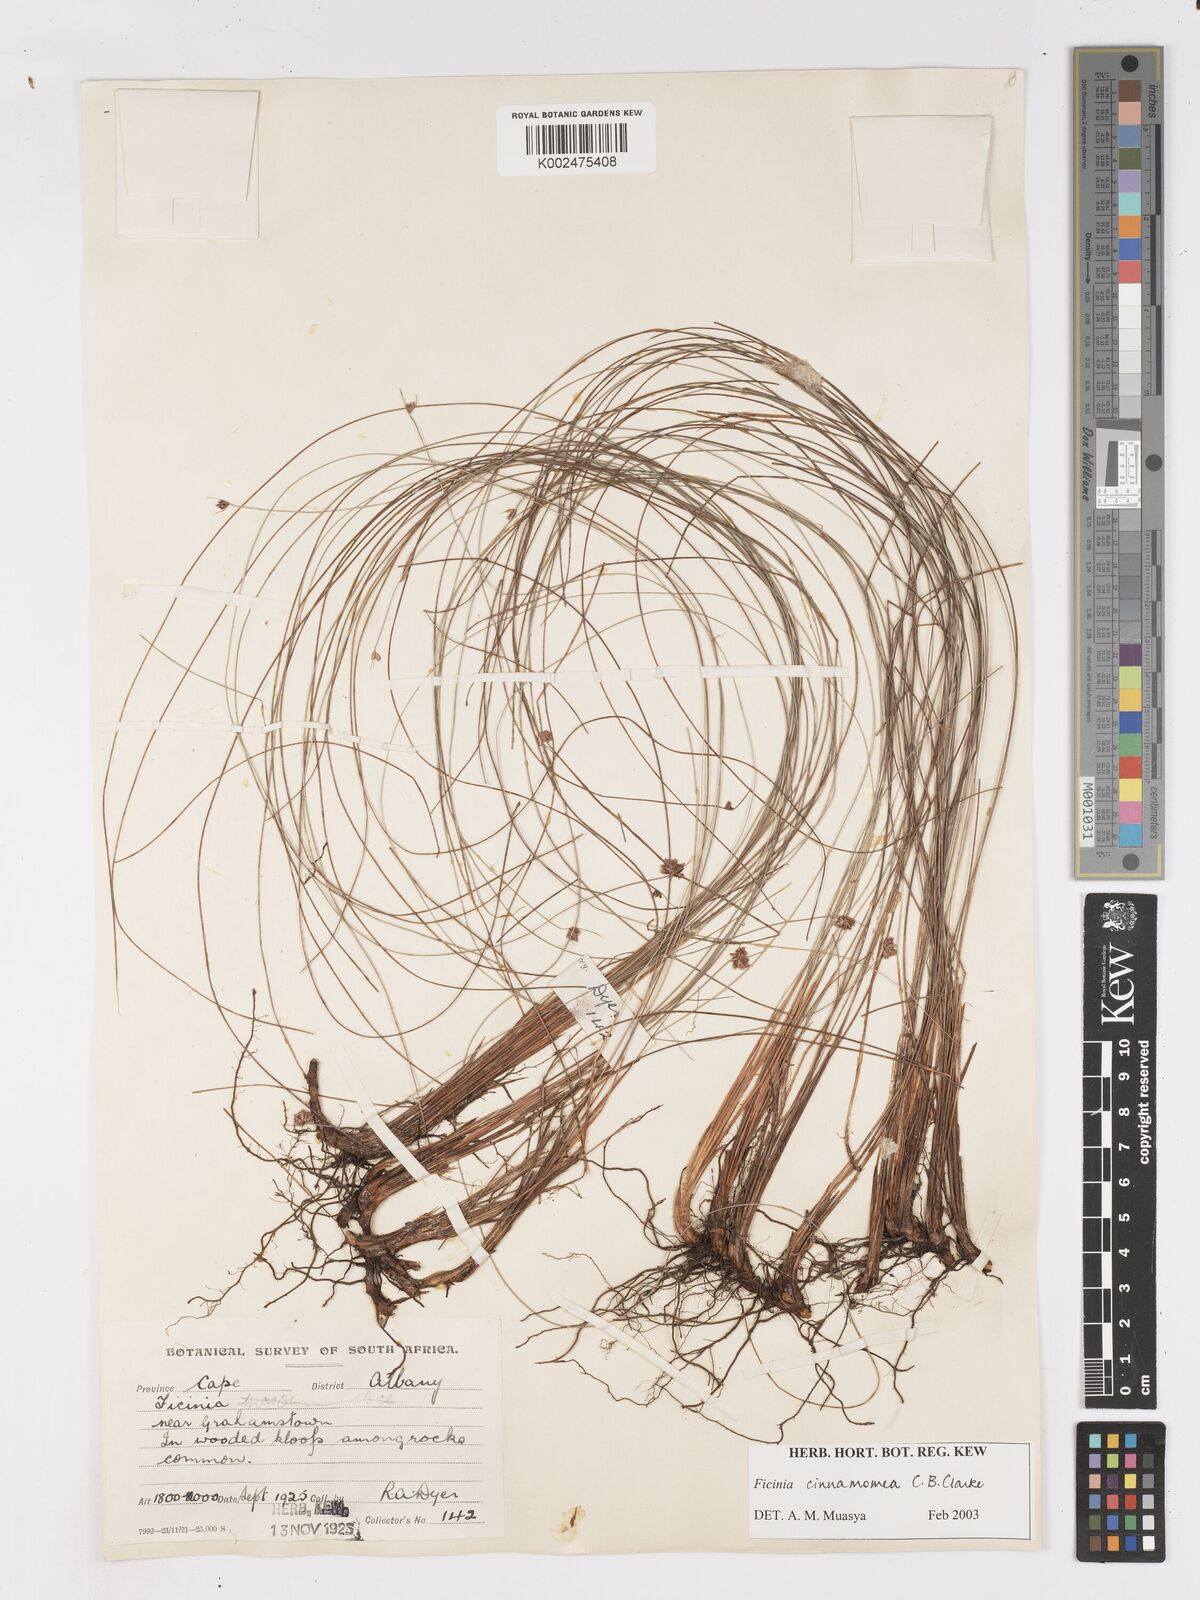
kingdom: Plantae
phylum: Tracheophyta
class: Liliopsida
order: Poales
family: Cyperaceae
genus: Ficinia
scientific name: Ficinia acuminata
